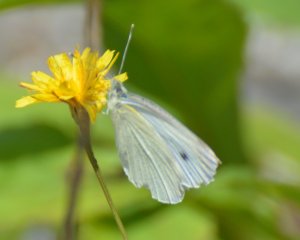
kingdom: Animalia
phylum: Arthropoda
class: Insecta
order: Lepidoptera
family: Pieridae
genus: Pieris
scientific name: Pieris rapae
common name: Cabbage White
